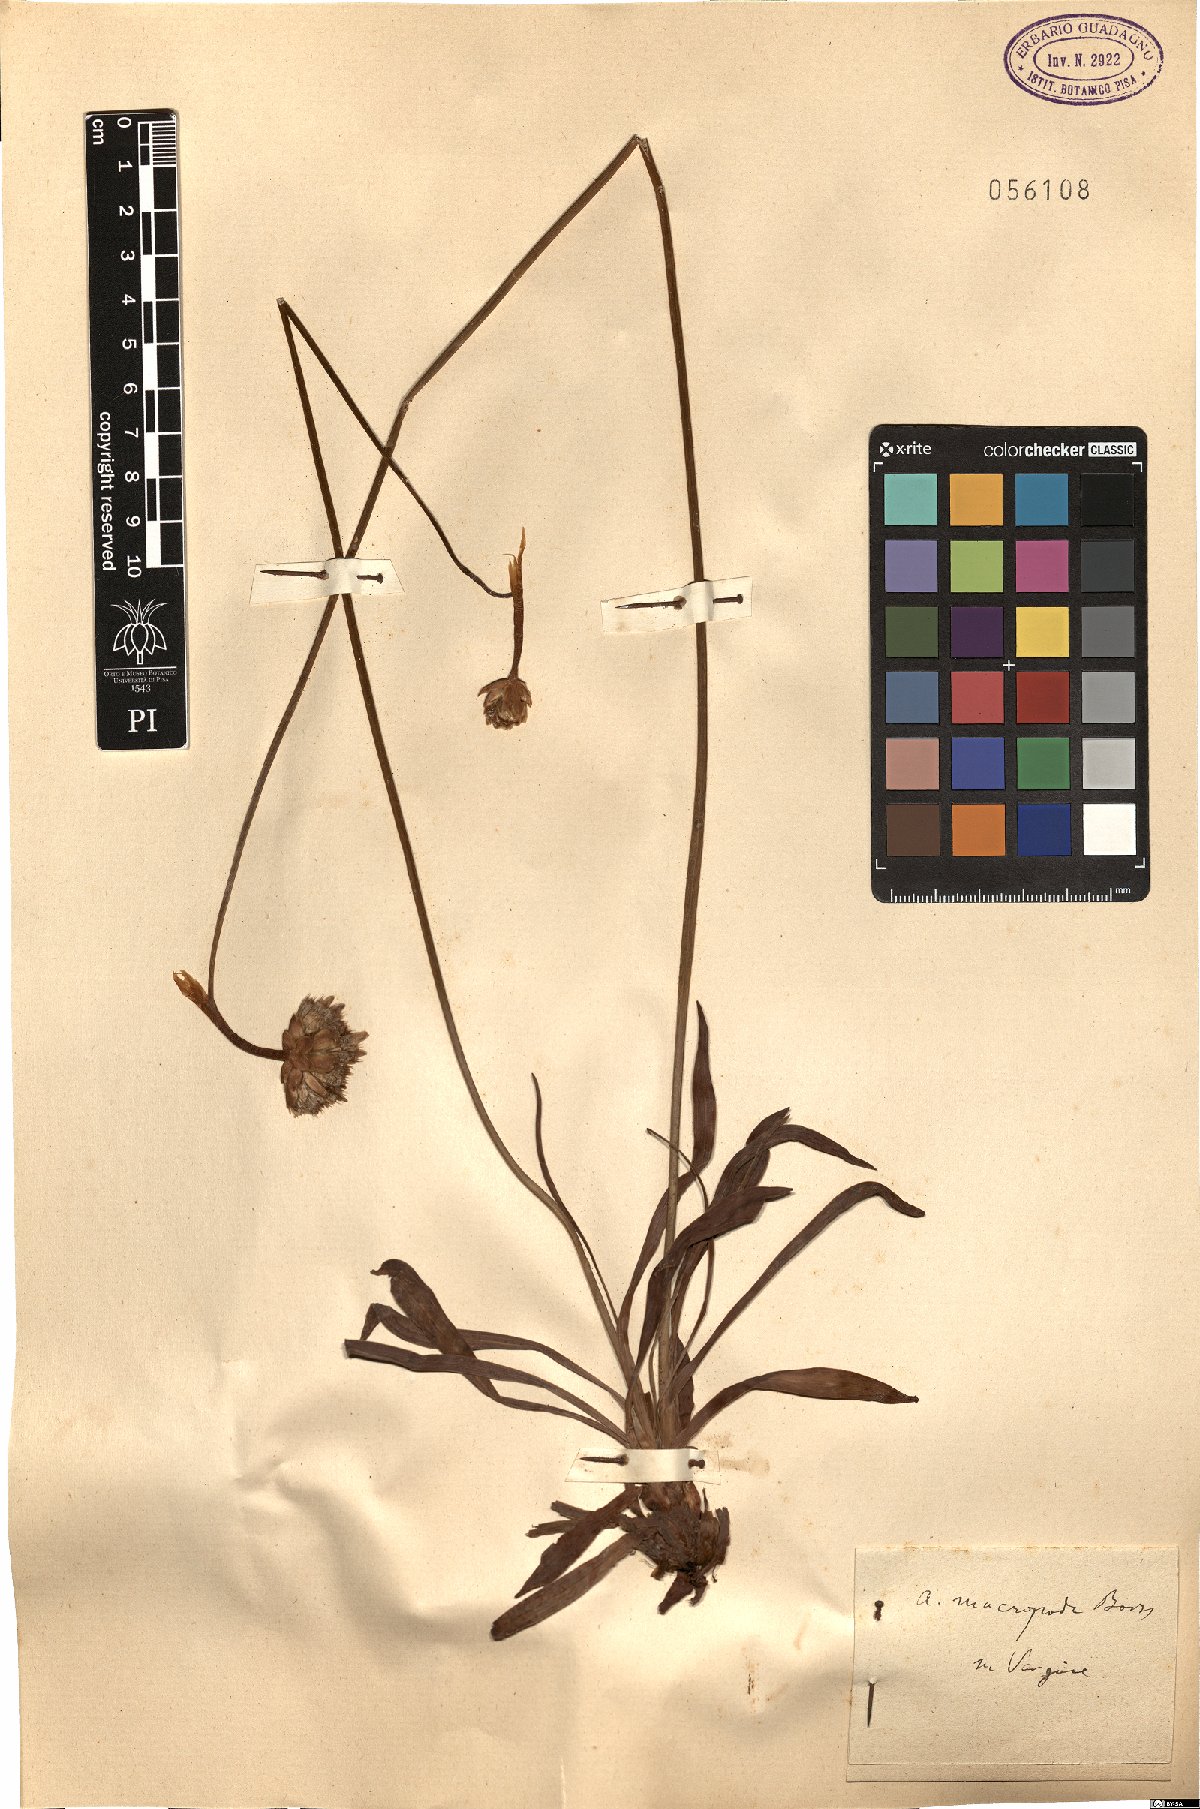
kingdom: Plantae
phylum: Tracheophyta
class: Magnoliopsida
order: Caryophyllales
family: Plumbaginaceae
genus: Armeria
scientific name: Armeria macropoda
